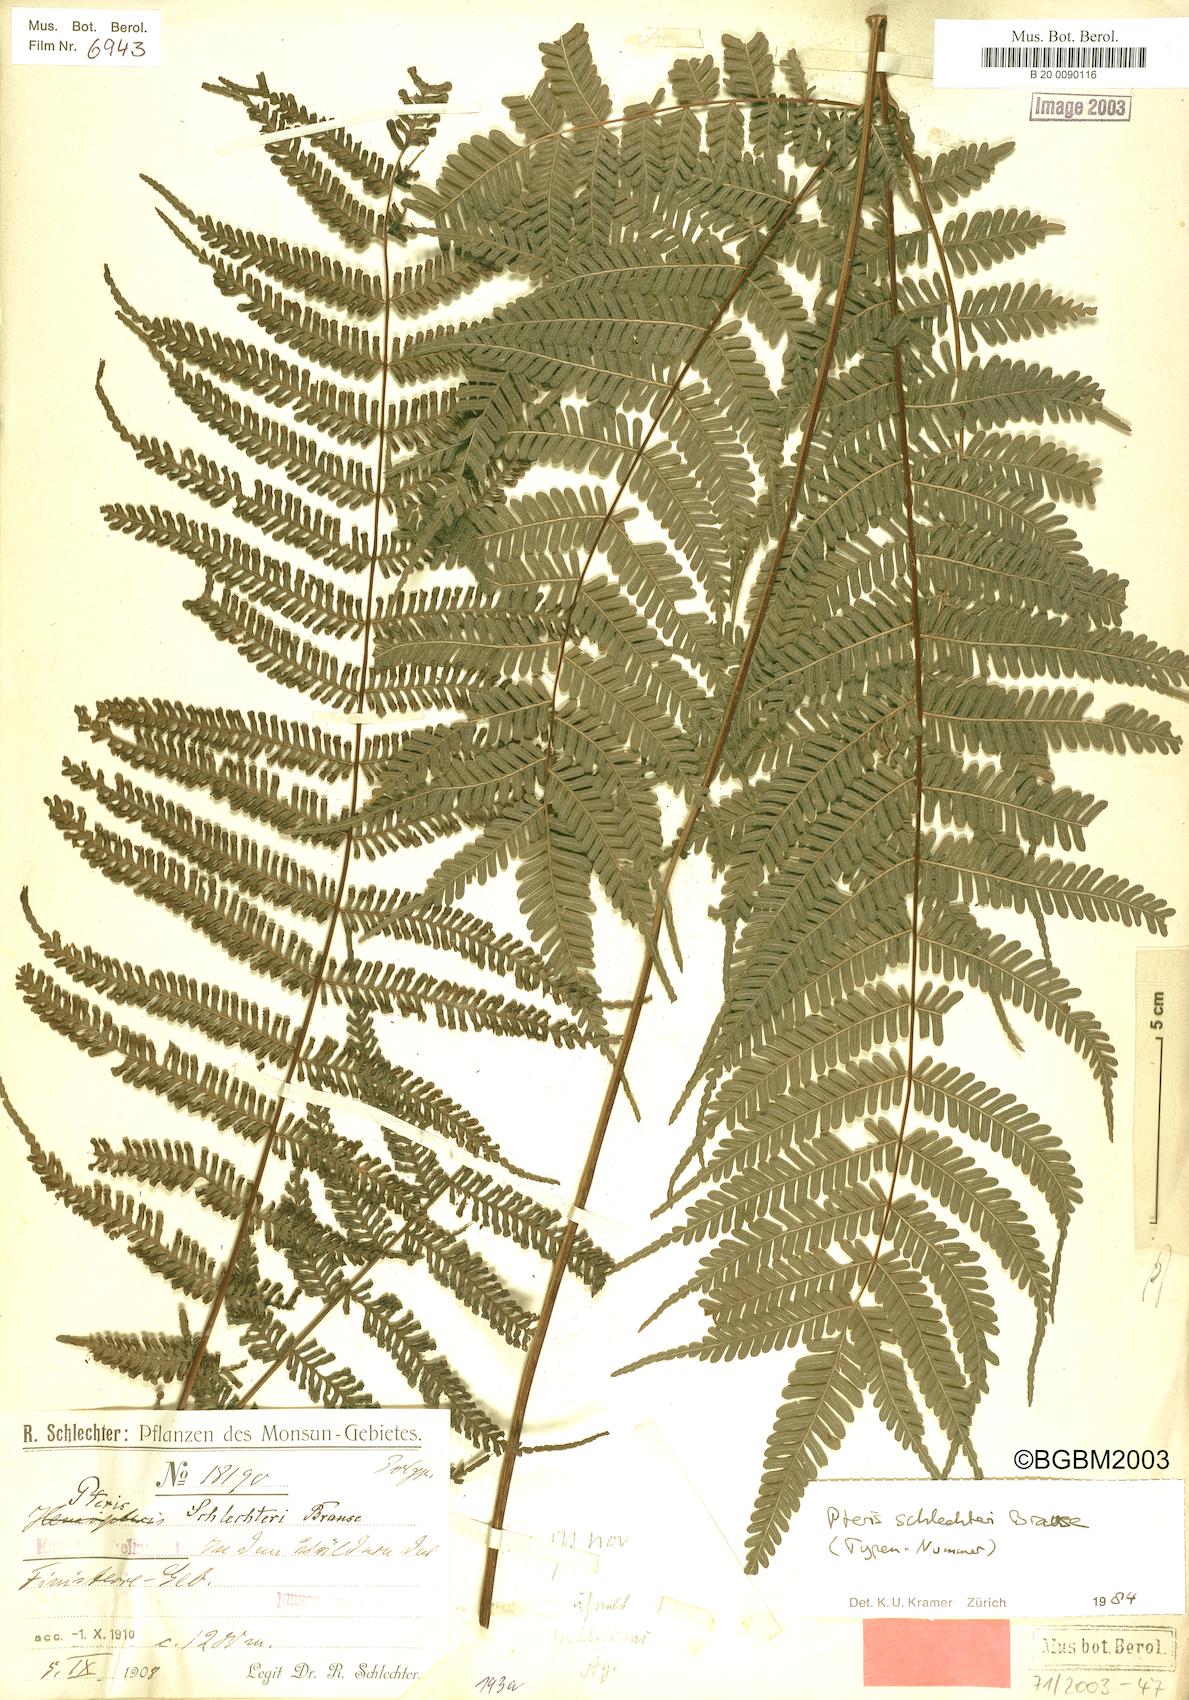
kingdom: Plantae
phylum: Tracheophyta
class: Polypodiopsida
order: Polypodiales
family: Pteridaceae
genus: Pteris
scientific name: Pteris schlechteri
